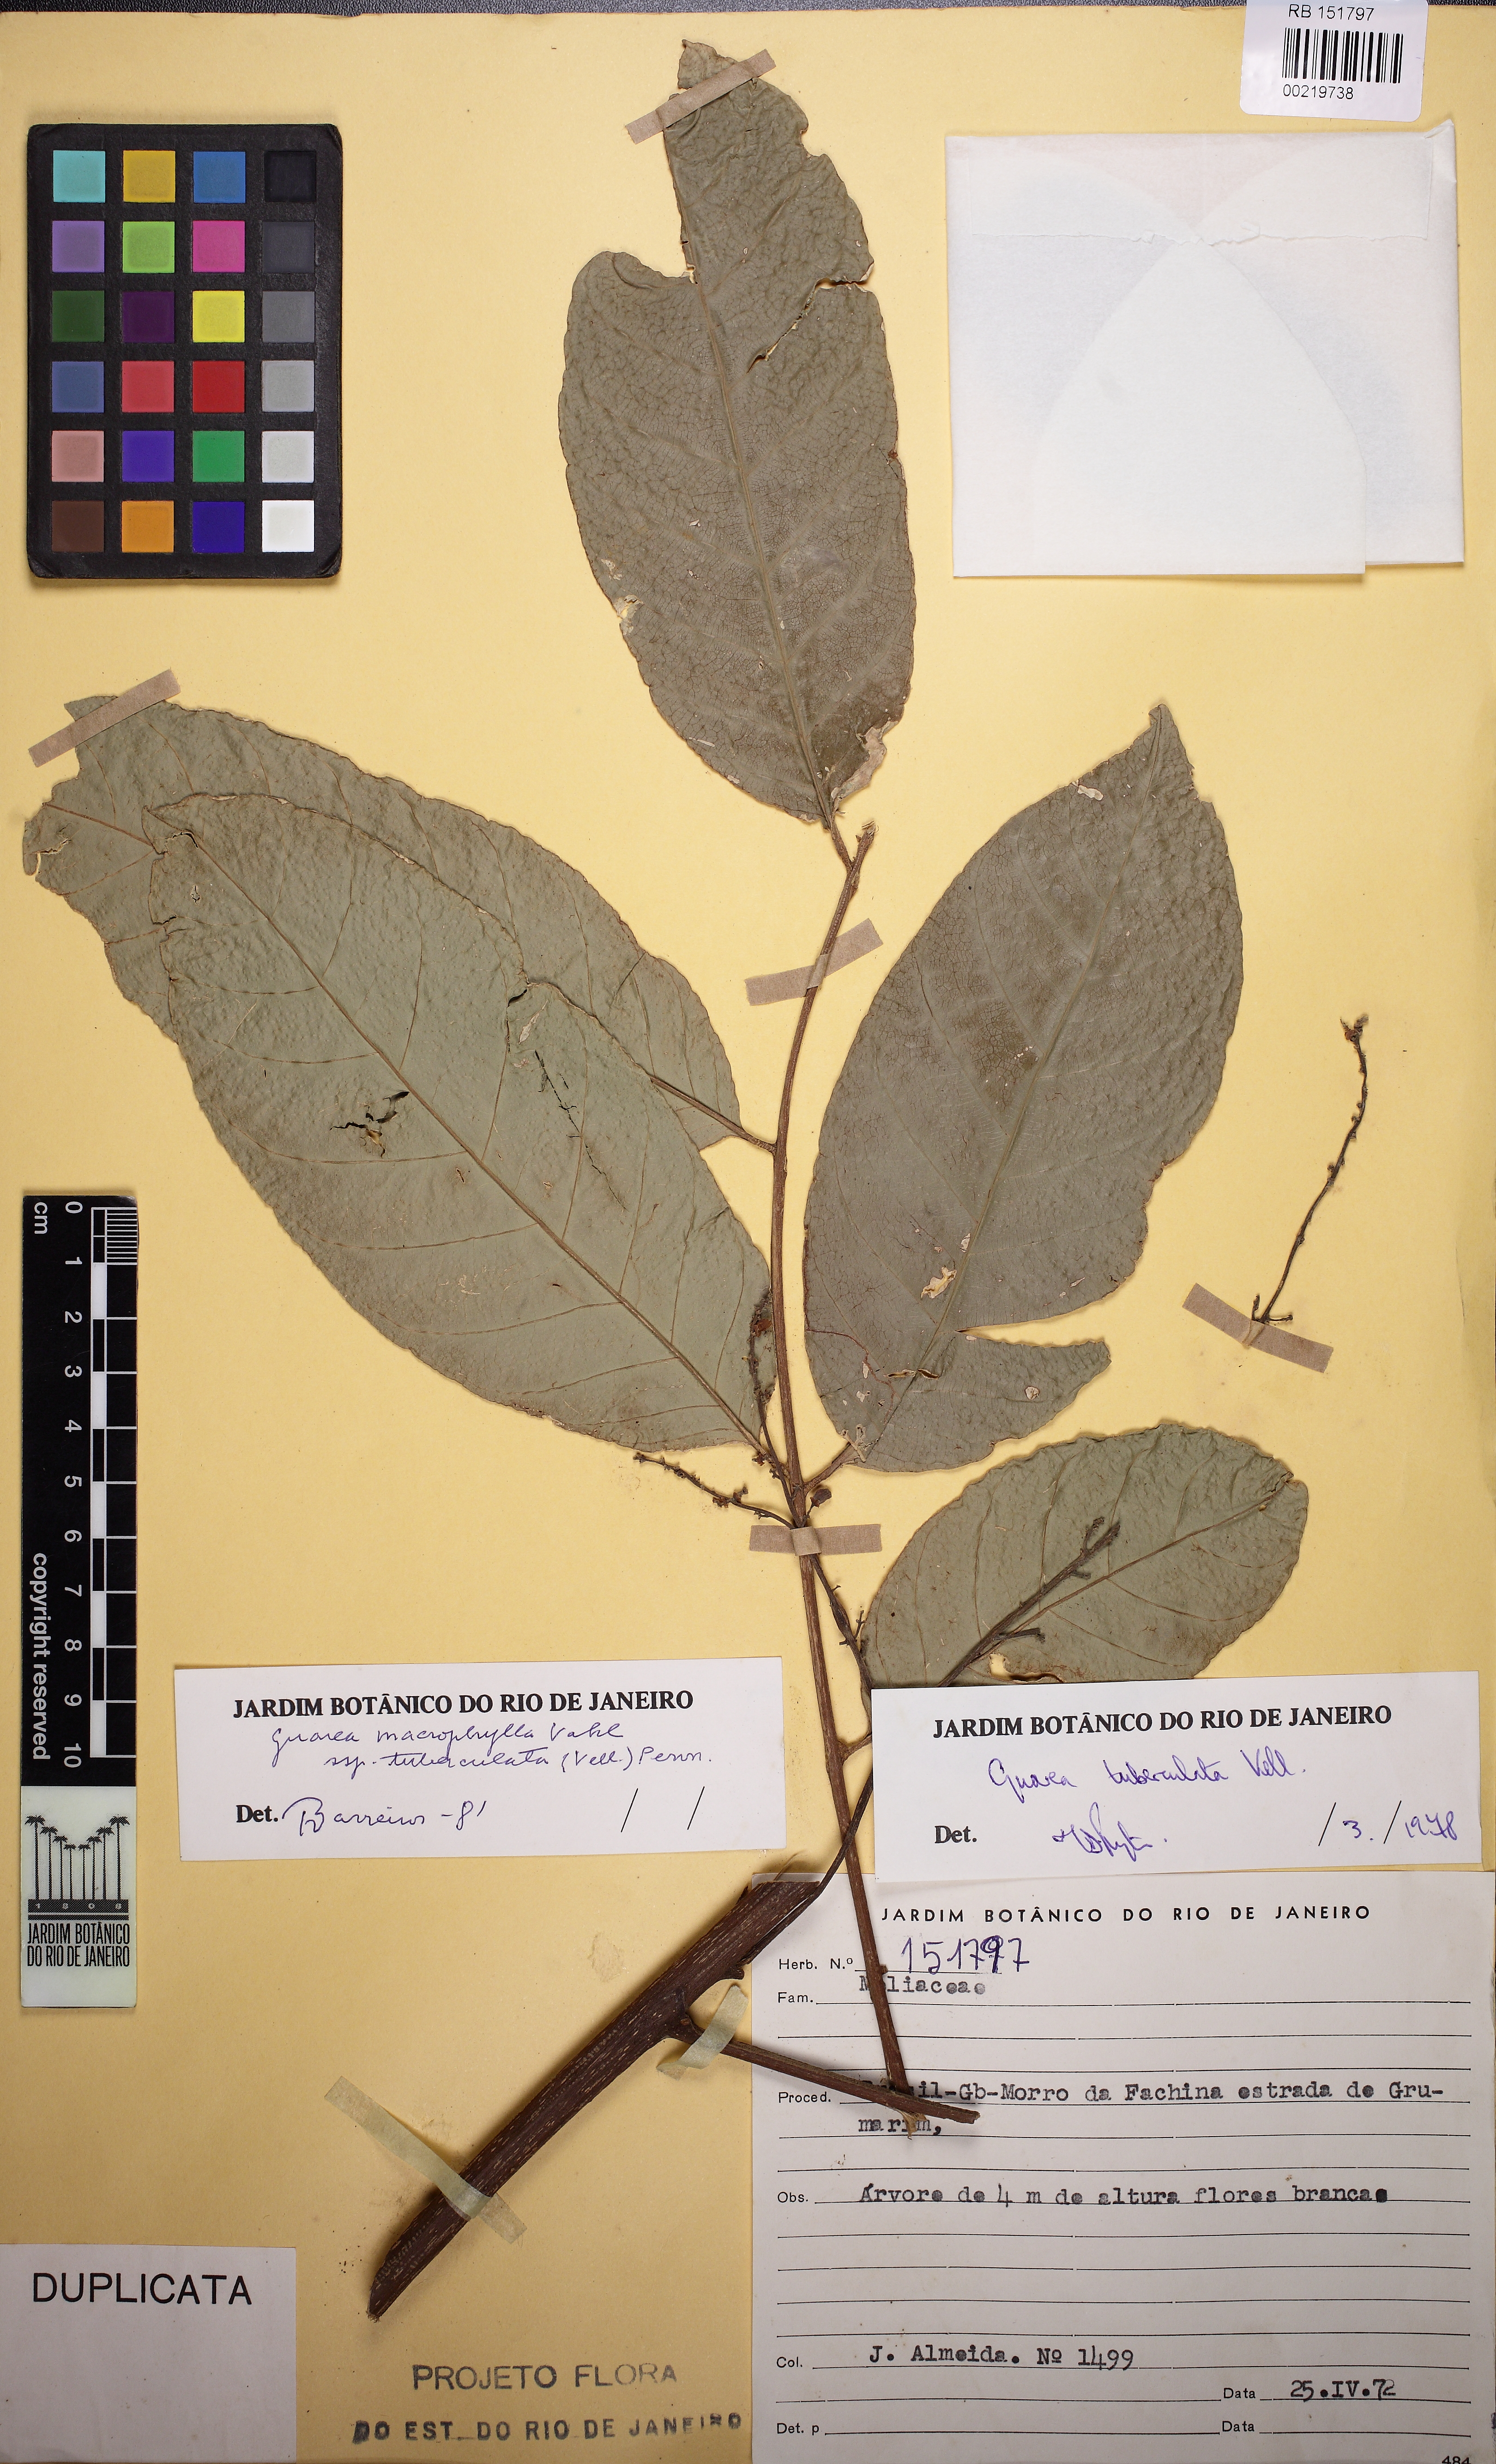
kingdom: Plantae
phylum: Tracheophyta
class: Magnoliopsida
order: Sapindales
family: Meliaceae
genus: Guarea
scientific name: Guarea macrophylla
